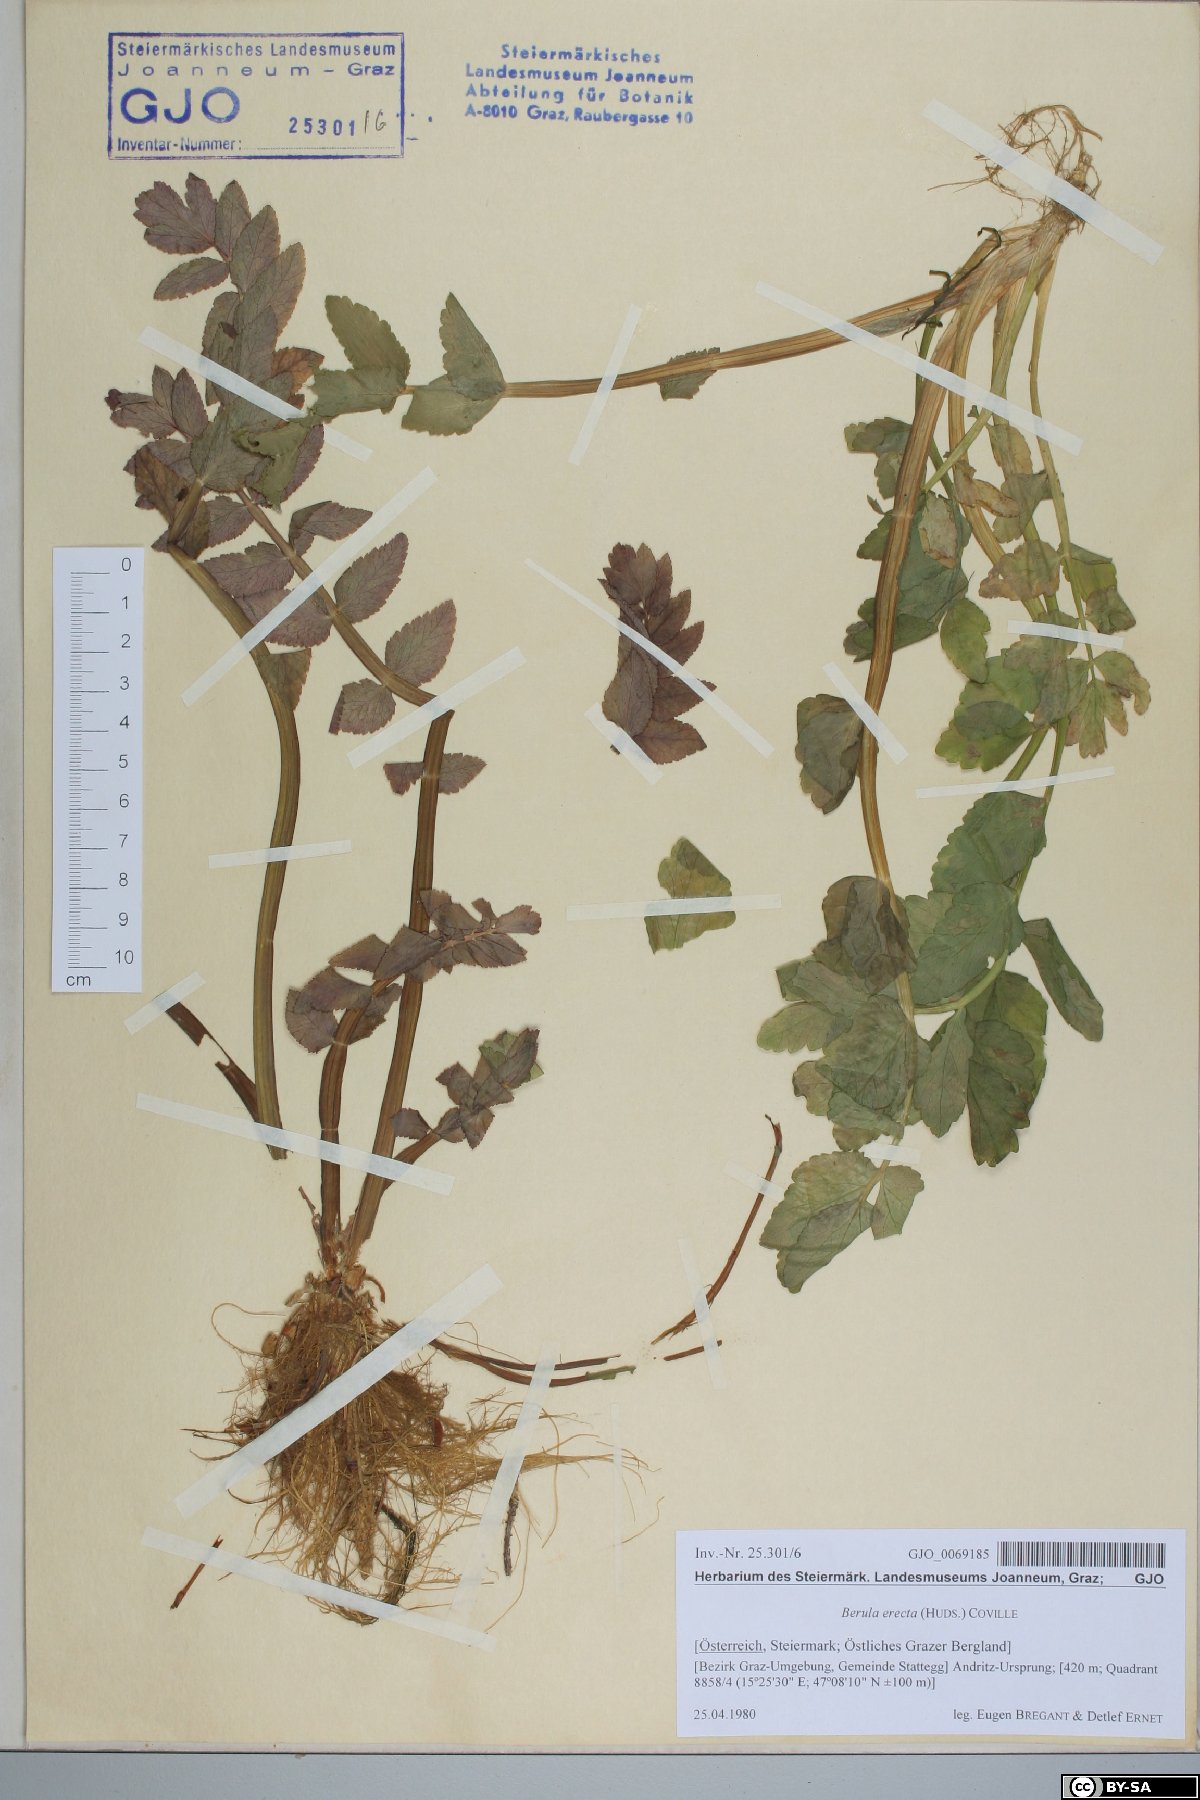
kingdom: Plantae
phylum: Tracheophyta
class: Magnoliopsida
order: Apiales
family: Apiaceae
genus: Berula
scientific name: Berula erecta
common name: Lesser water-parsnip
